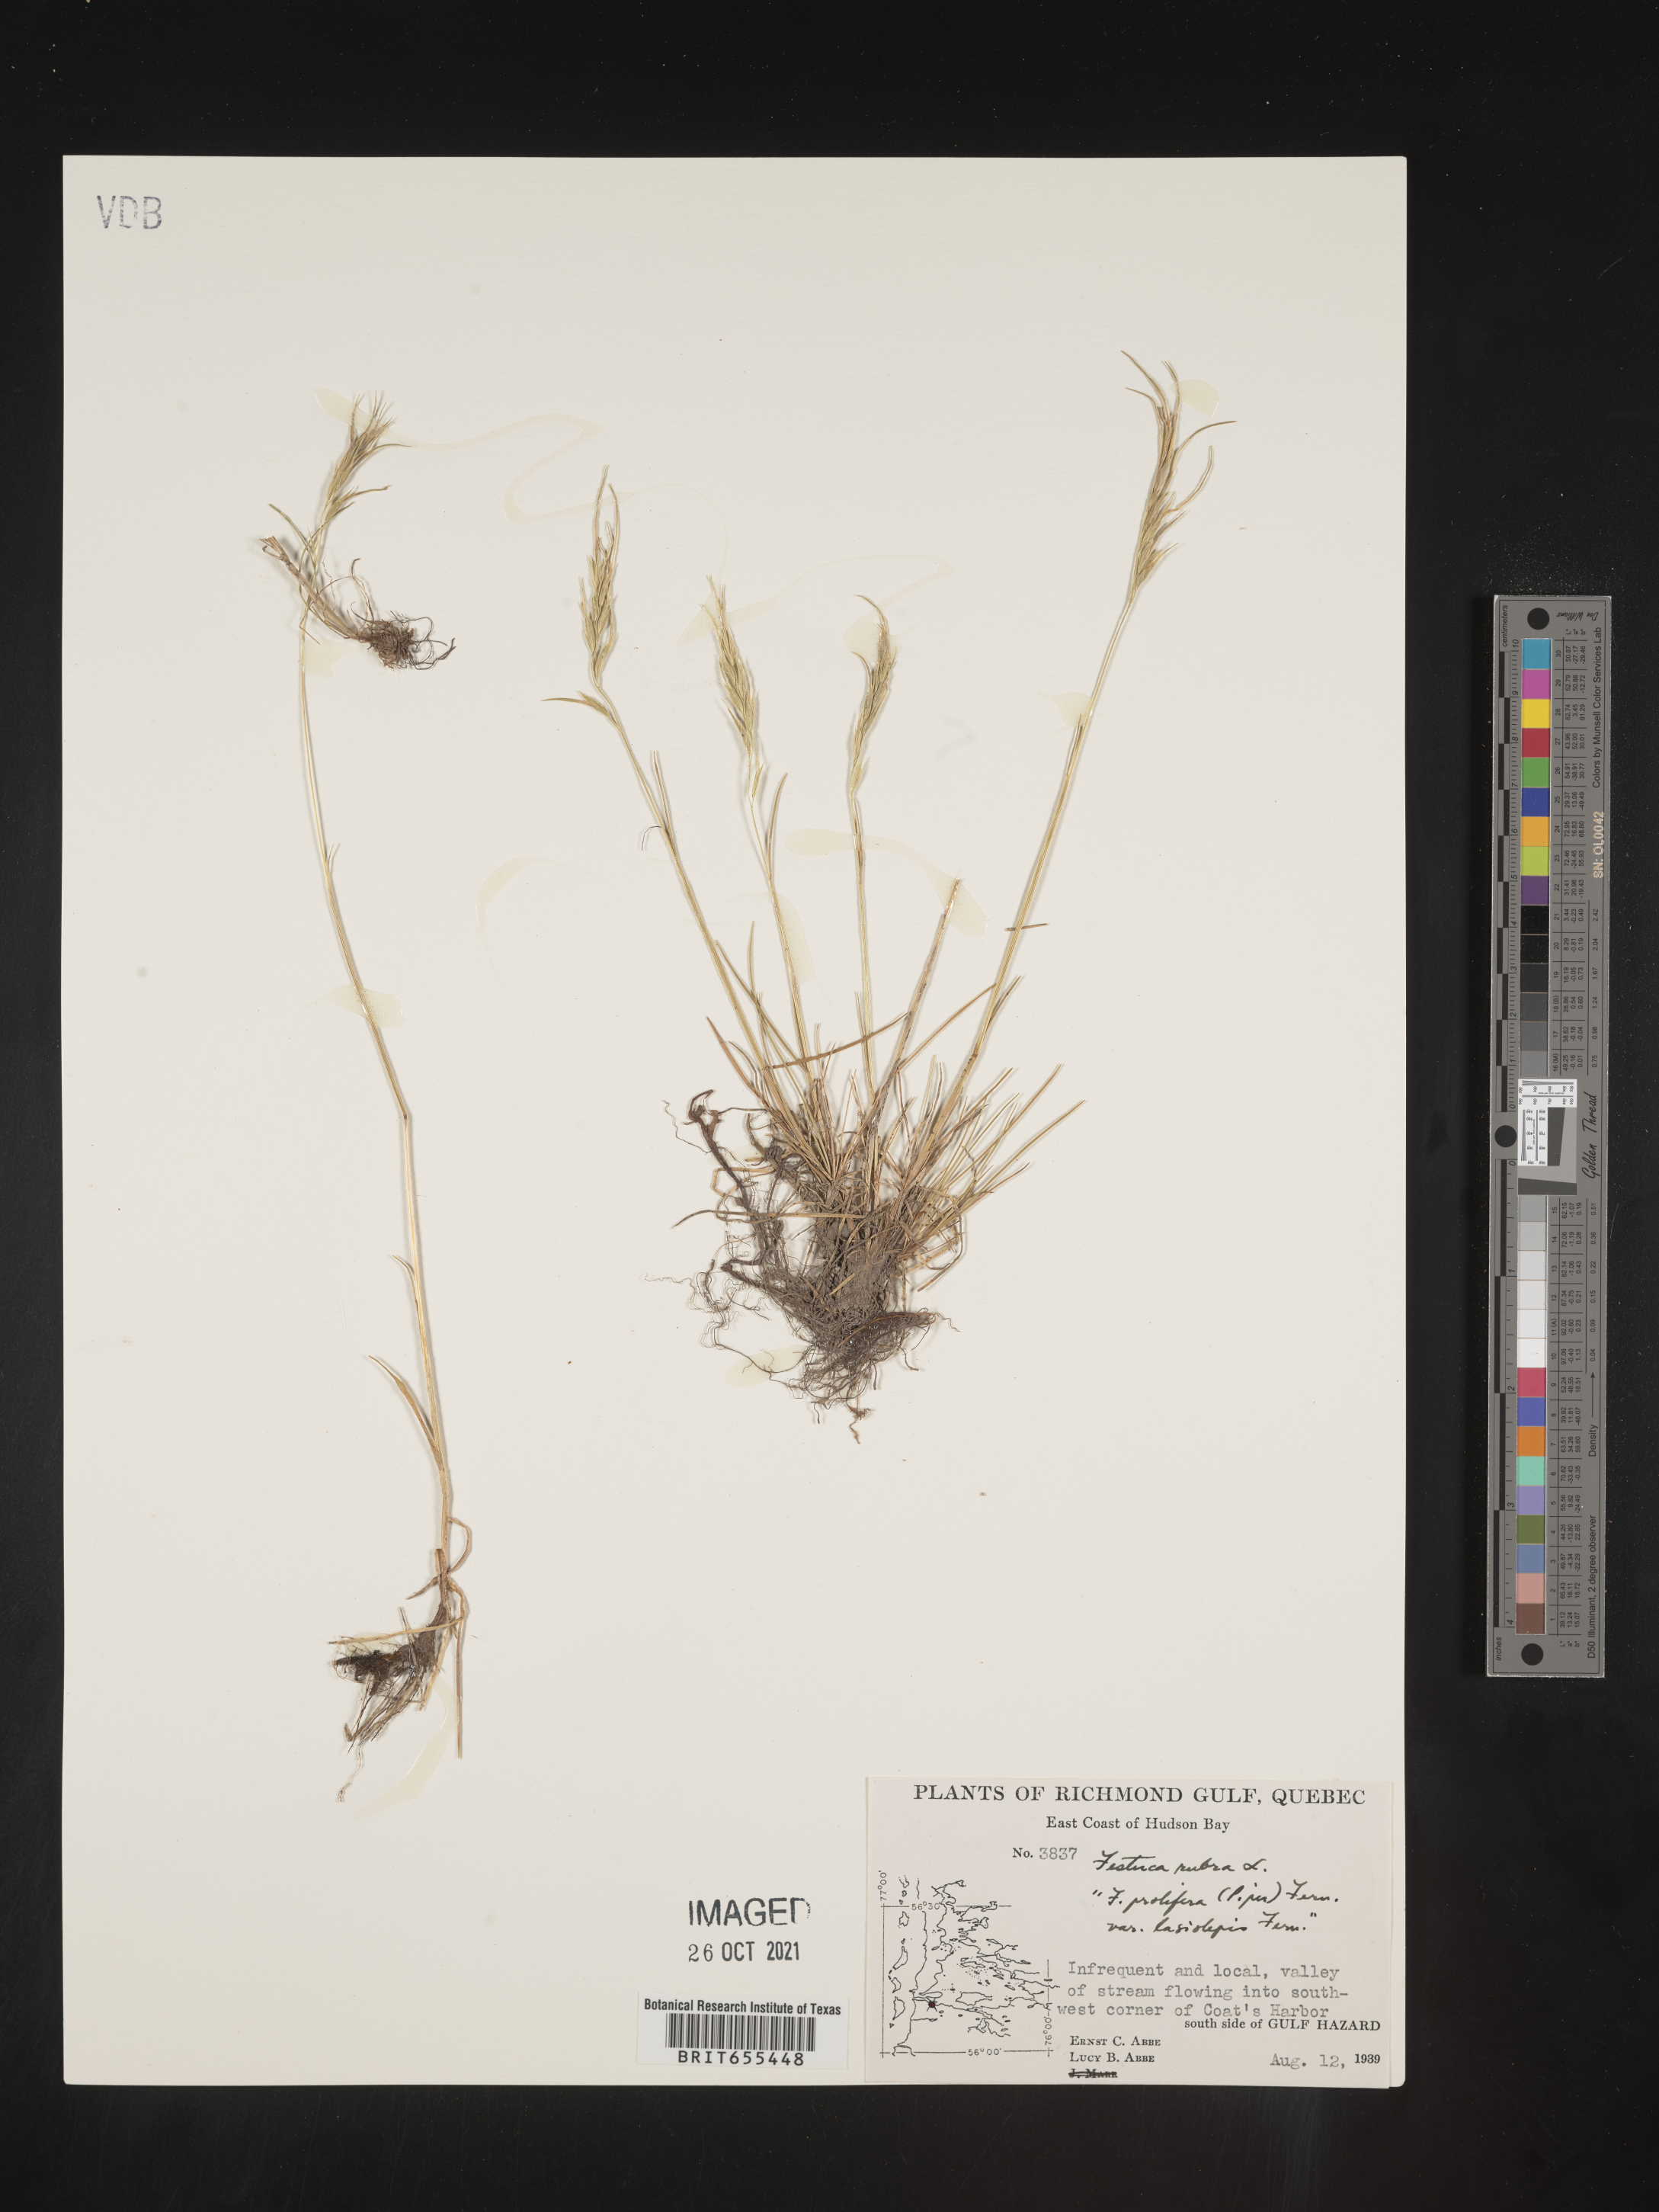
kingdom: Plantae
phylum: Tracheophyta
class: Liliopsida
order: Poales
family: Poaceae
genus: Festuca
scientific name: Festuca
